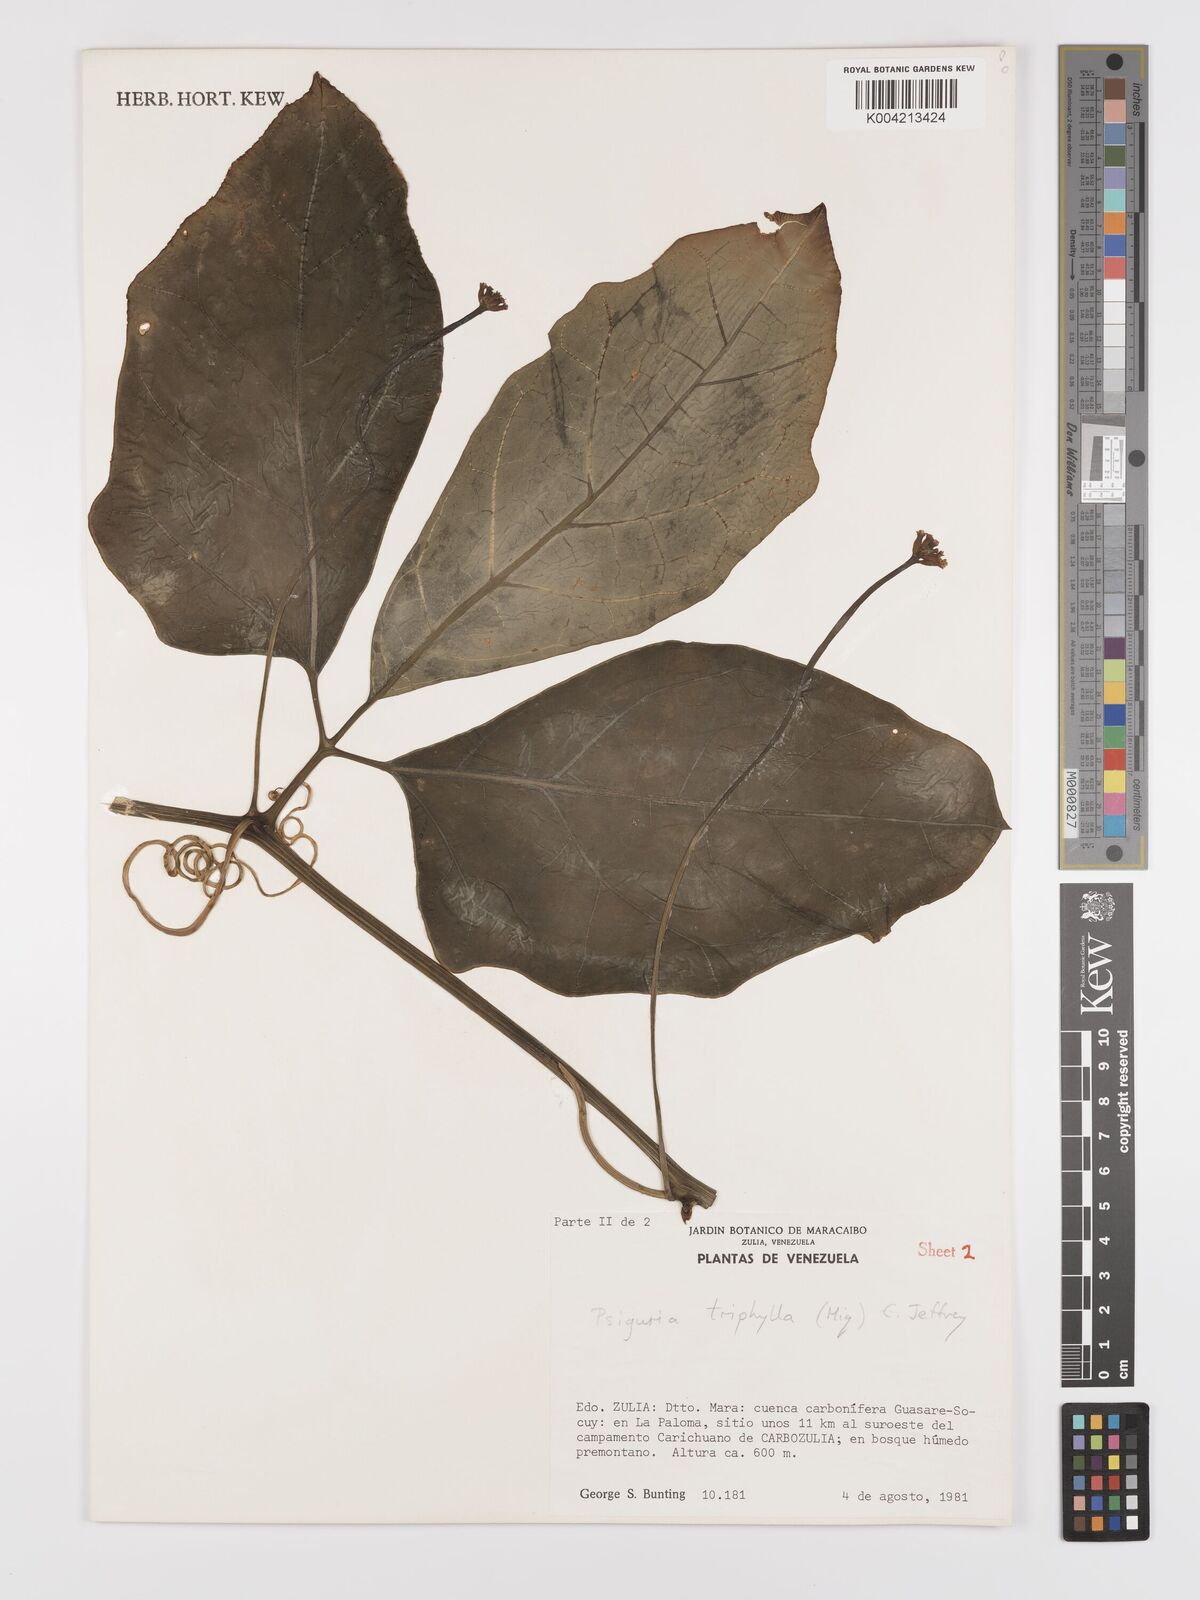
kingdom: Plantae
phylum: Tracheophyta
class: Magnoliopsida
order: Cucurbitales
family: Cucurbitaceae
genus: Psiguria
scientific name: Psiguria triphylla
